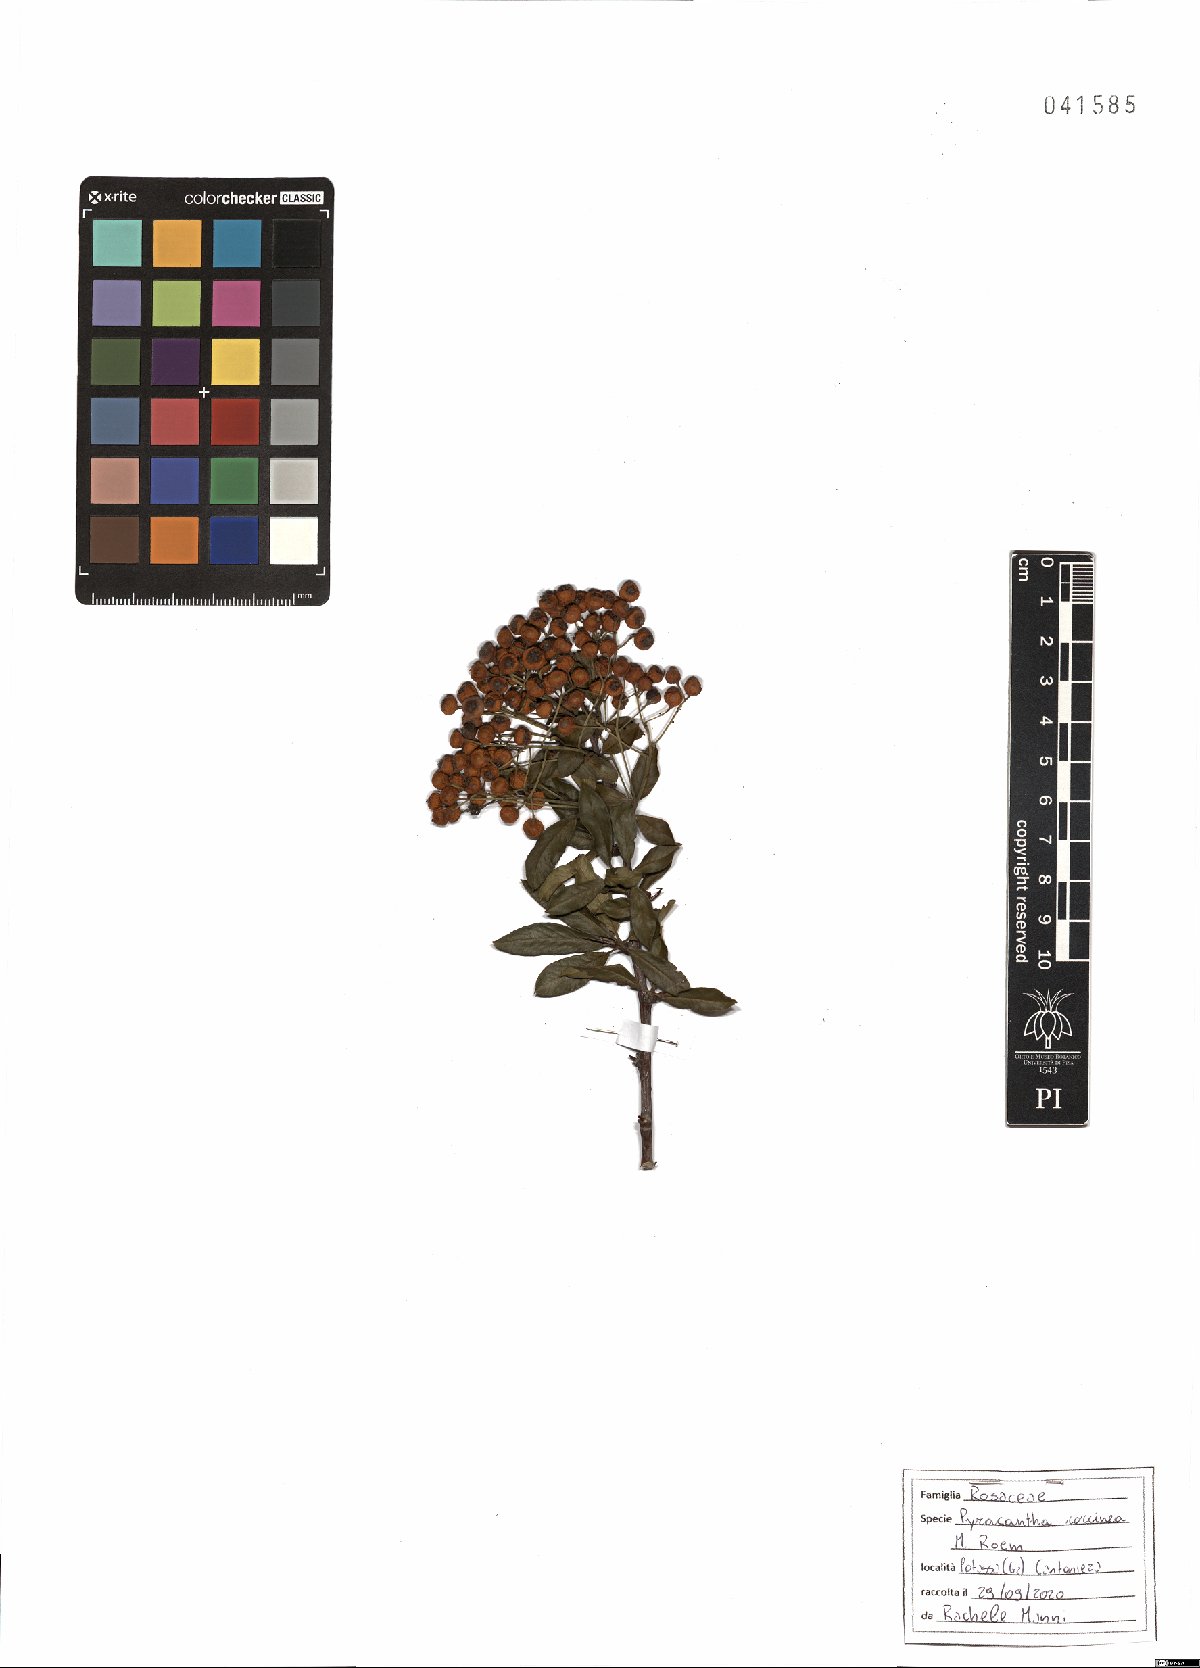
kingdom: Plantae
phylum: Tracheophyta
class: Magnoliopsida
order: Rosales
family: Rosaceae
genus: Pyracantha
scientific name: Pyracantha coccinea
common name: Firethorn
